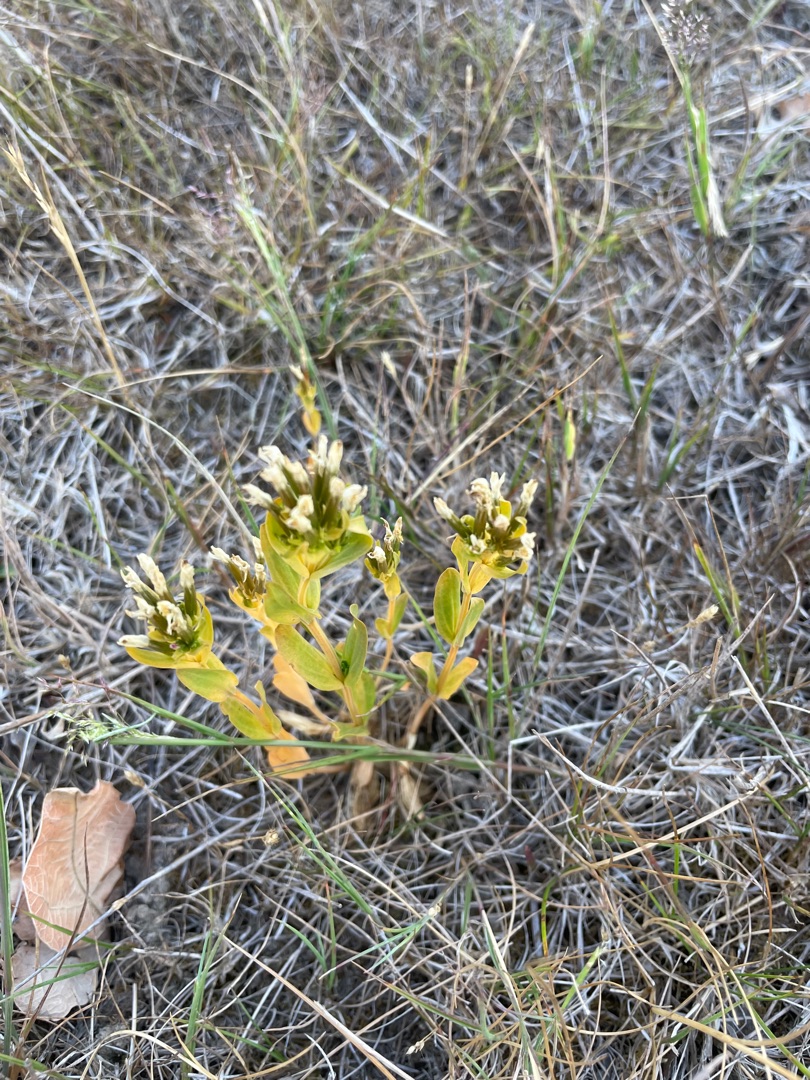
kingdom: Plantae
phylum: Tracheophyta
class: Magnoliopsida
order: Gentianales
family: Gentianaceae
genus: Centaurium
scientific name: Centaurium erythraea
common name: Hoved-tusindgylden
